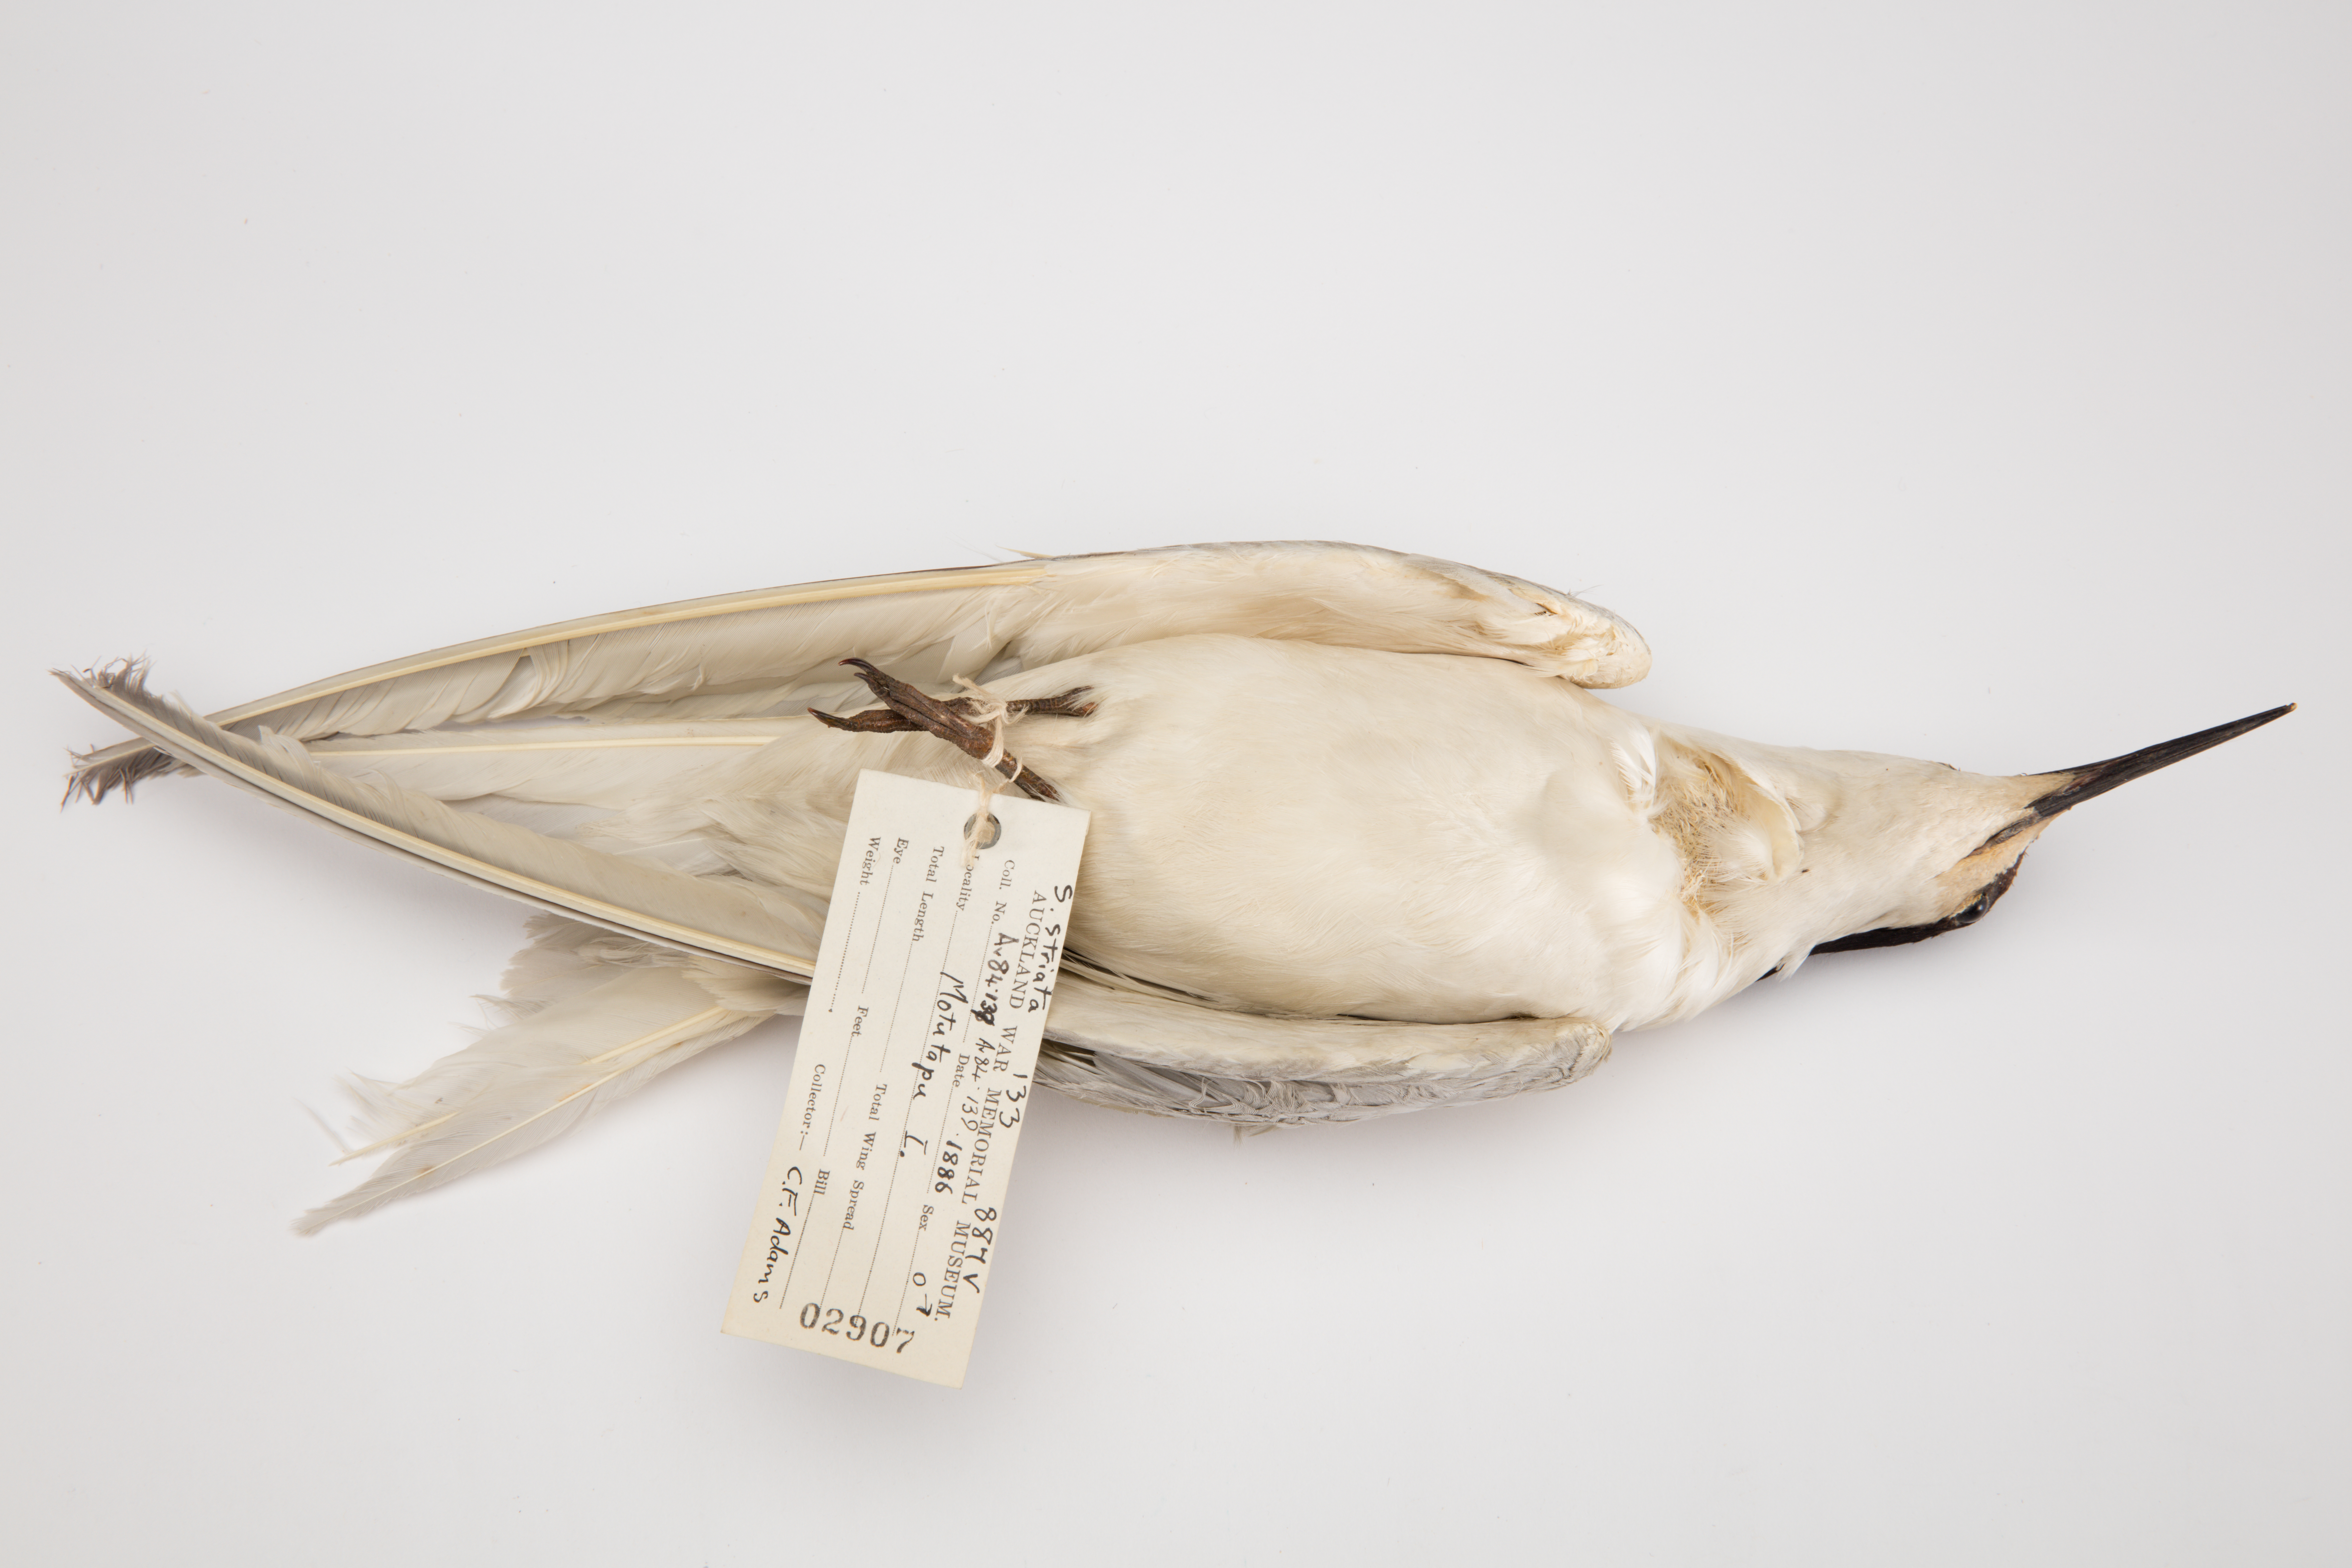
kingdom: Animalia
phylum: Chordata
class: Aves
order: Charadriiformes
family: Laridae
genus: Sterna
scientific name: Sterna striata
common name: White-fronted tern
